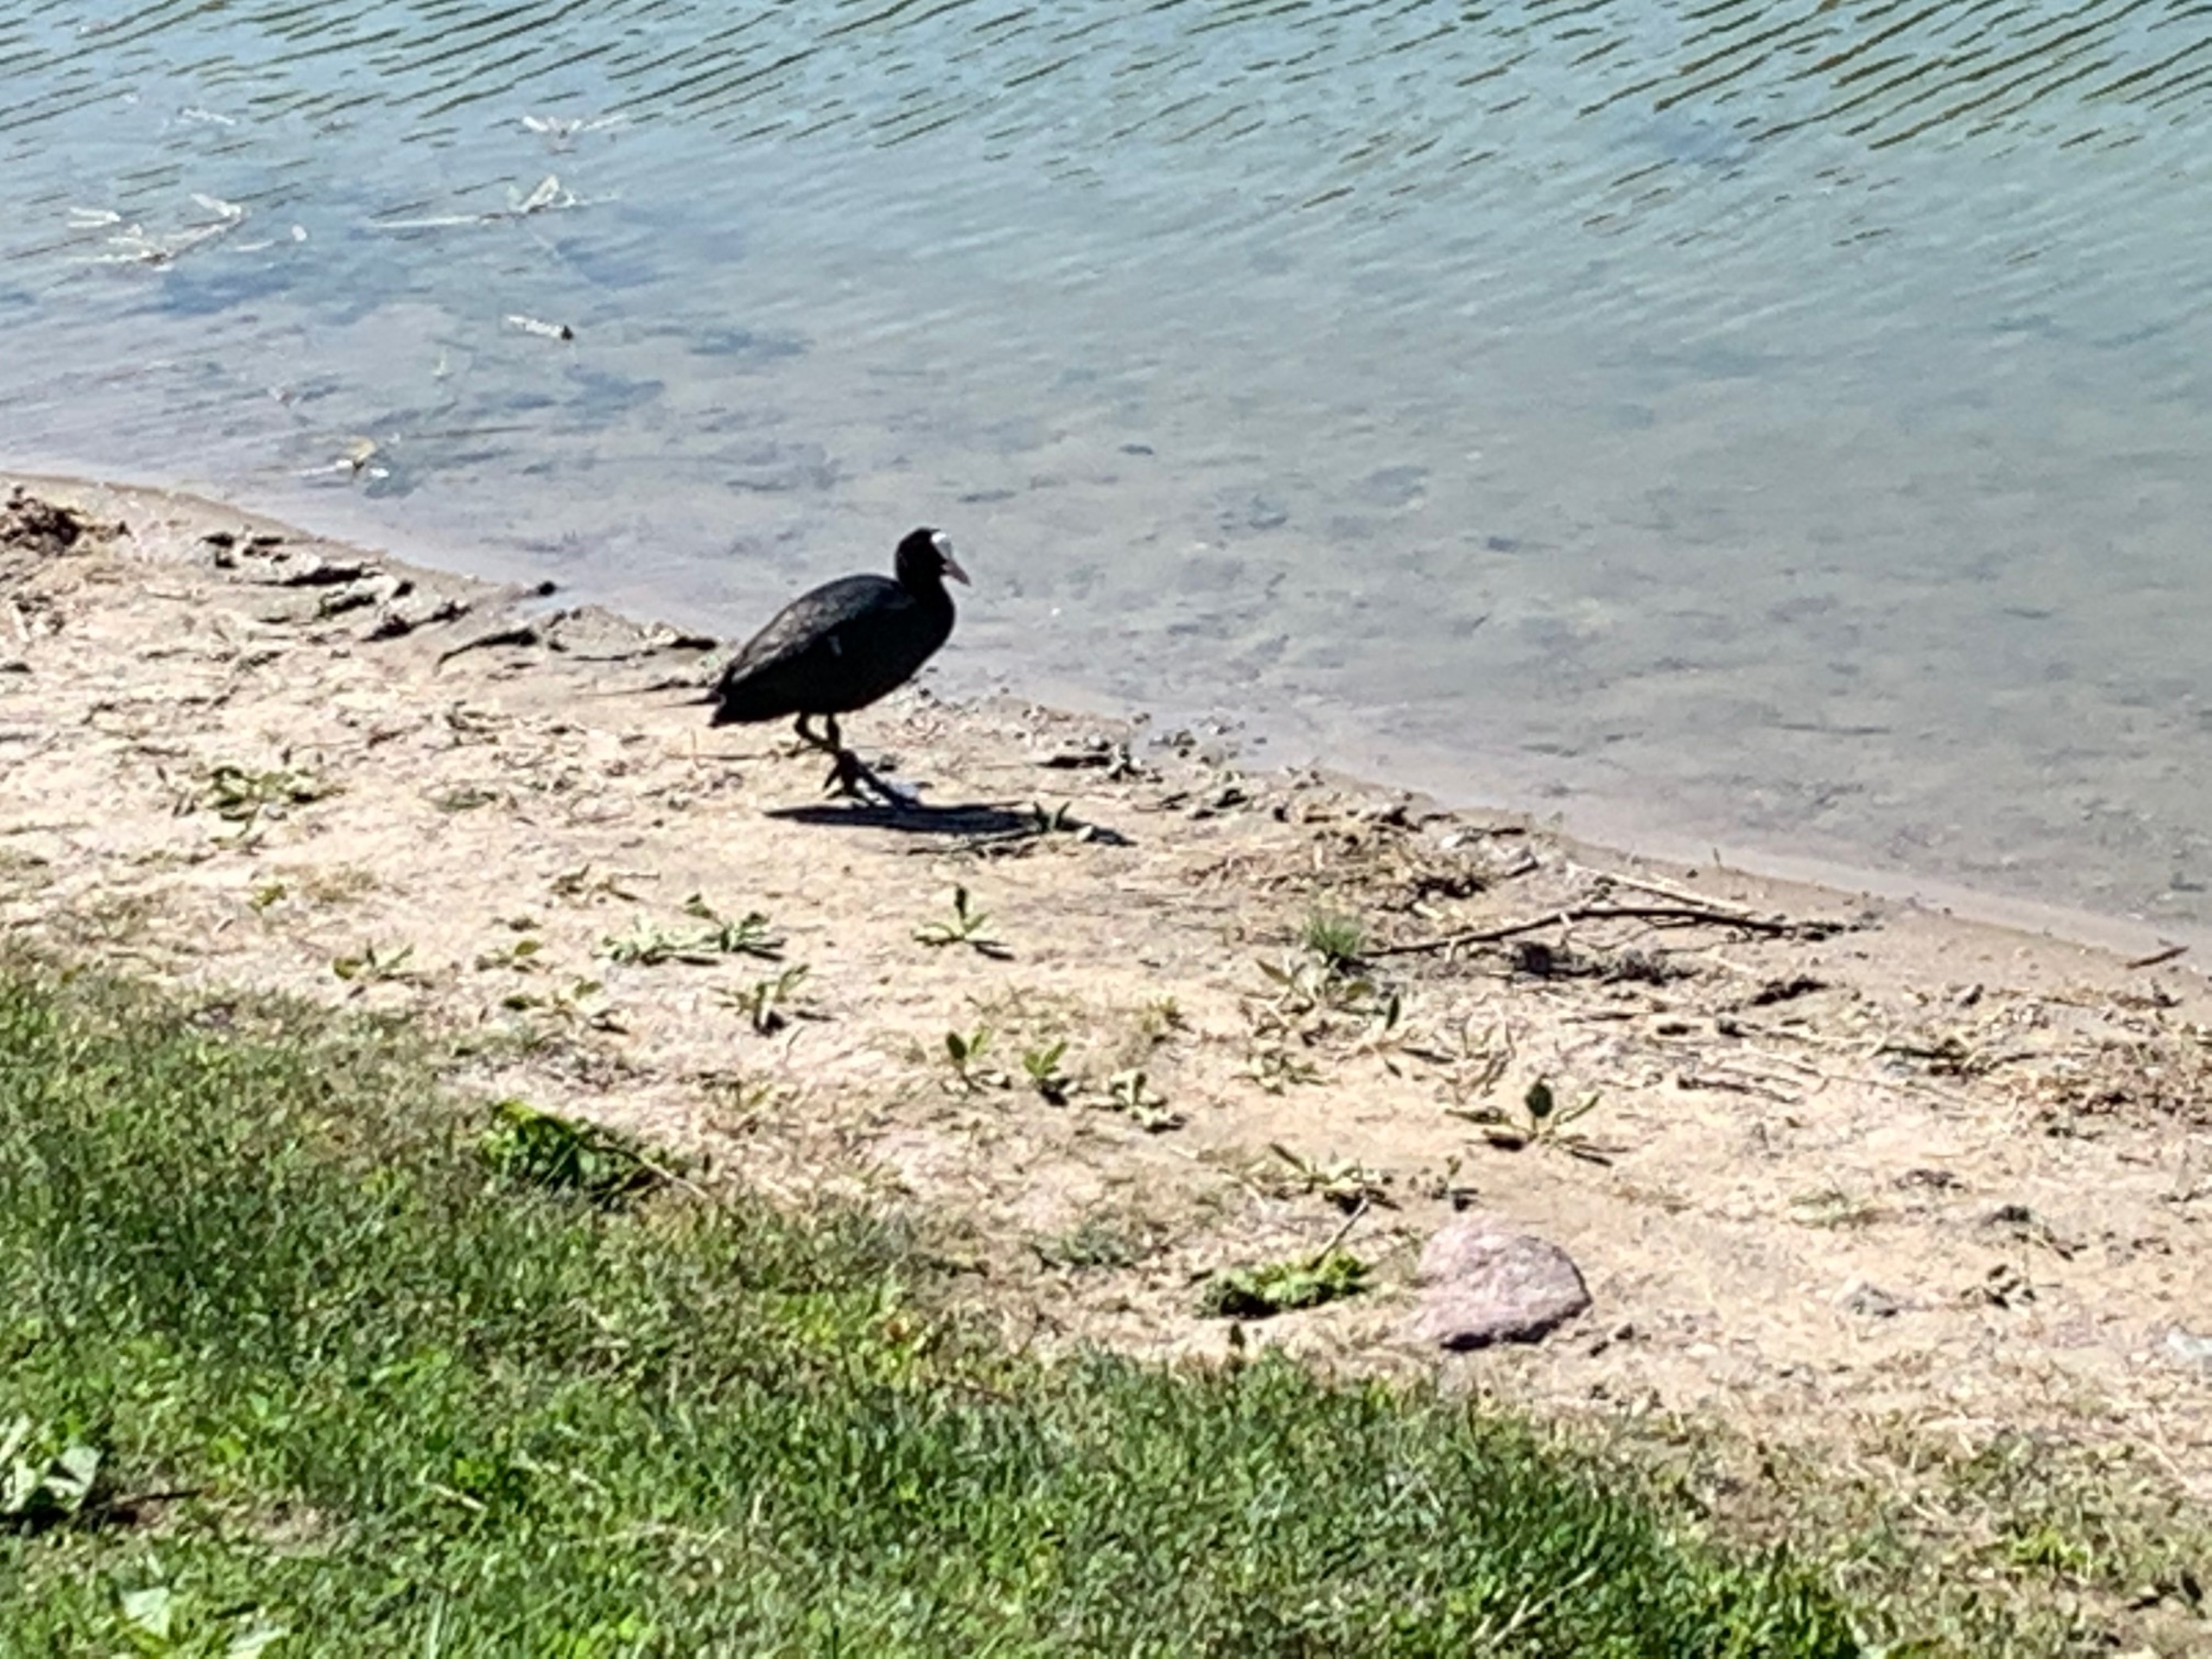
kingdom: Animalia
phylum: Chordata
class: Aves
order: Gruiformes
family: Rallidae
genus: Fulica
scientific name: Fulica atra
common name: Blishøne
